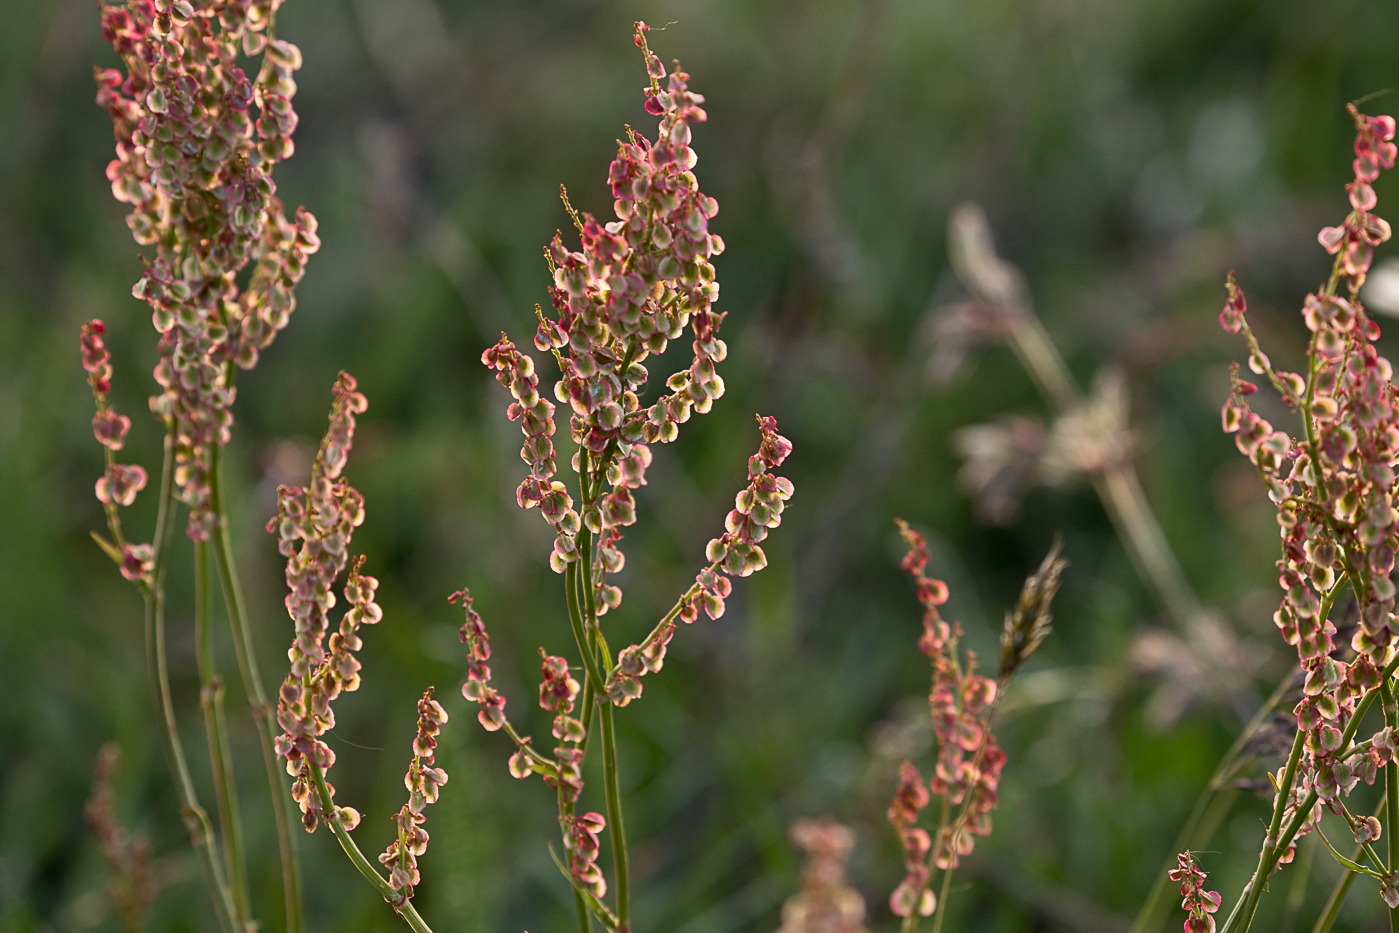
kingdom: Plantae
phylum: Tracheophyta
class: Magnoliopsida
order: Caryophyllales
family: Polygonaceae
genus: Rumex
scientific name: Rumex acetosa
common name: Almindelig syre
